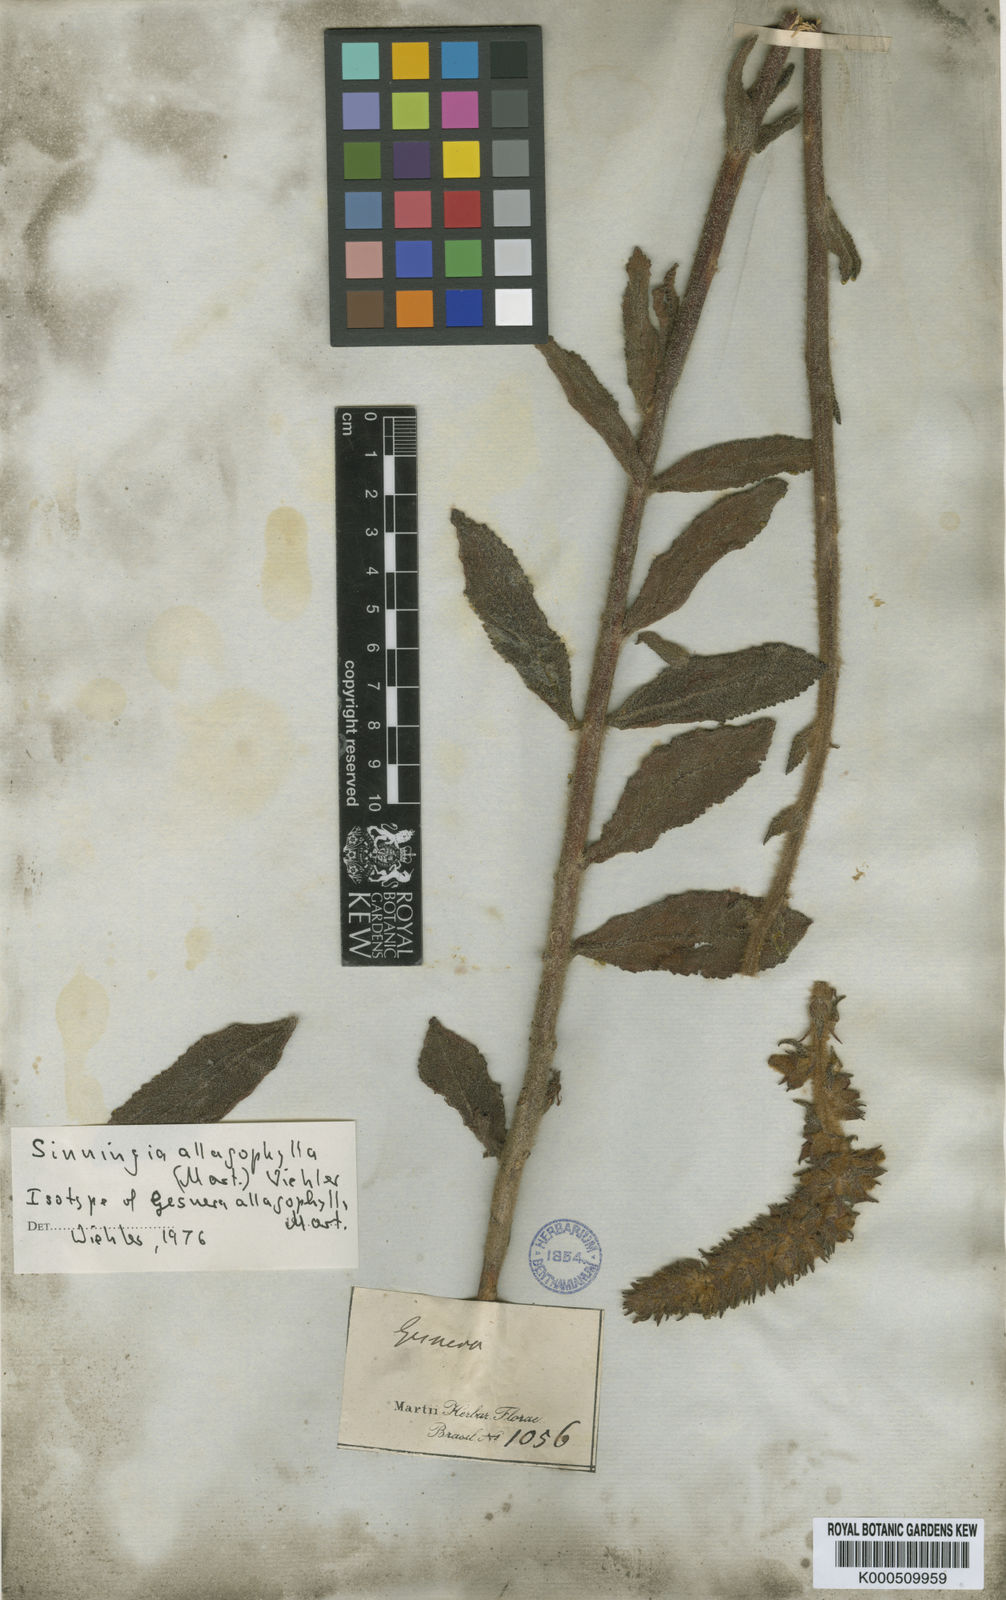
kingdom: Plantae
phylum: Tracheophyta
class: Magnoliopsida
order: Lamiales
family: Gesneriaceae
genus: Sinningia
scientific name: Sinningia allagophylla
